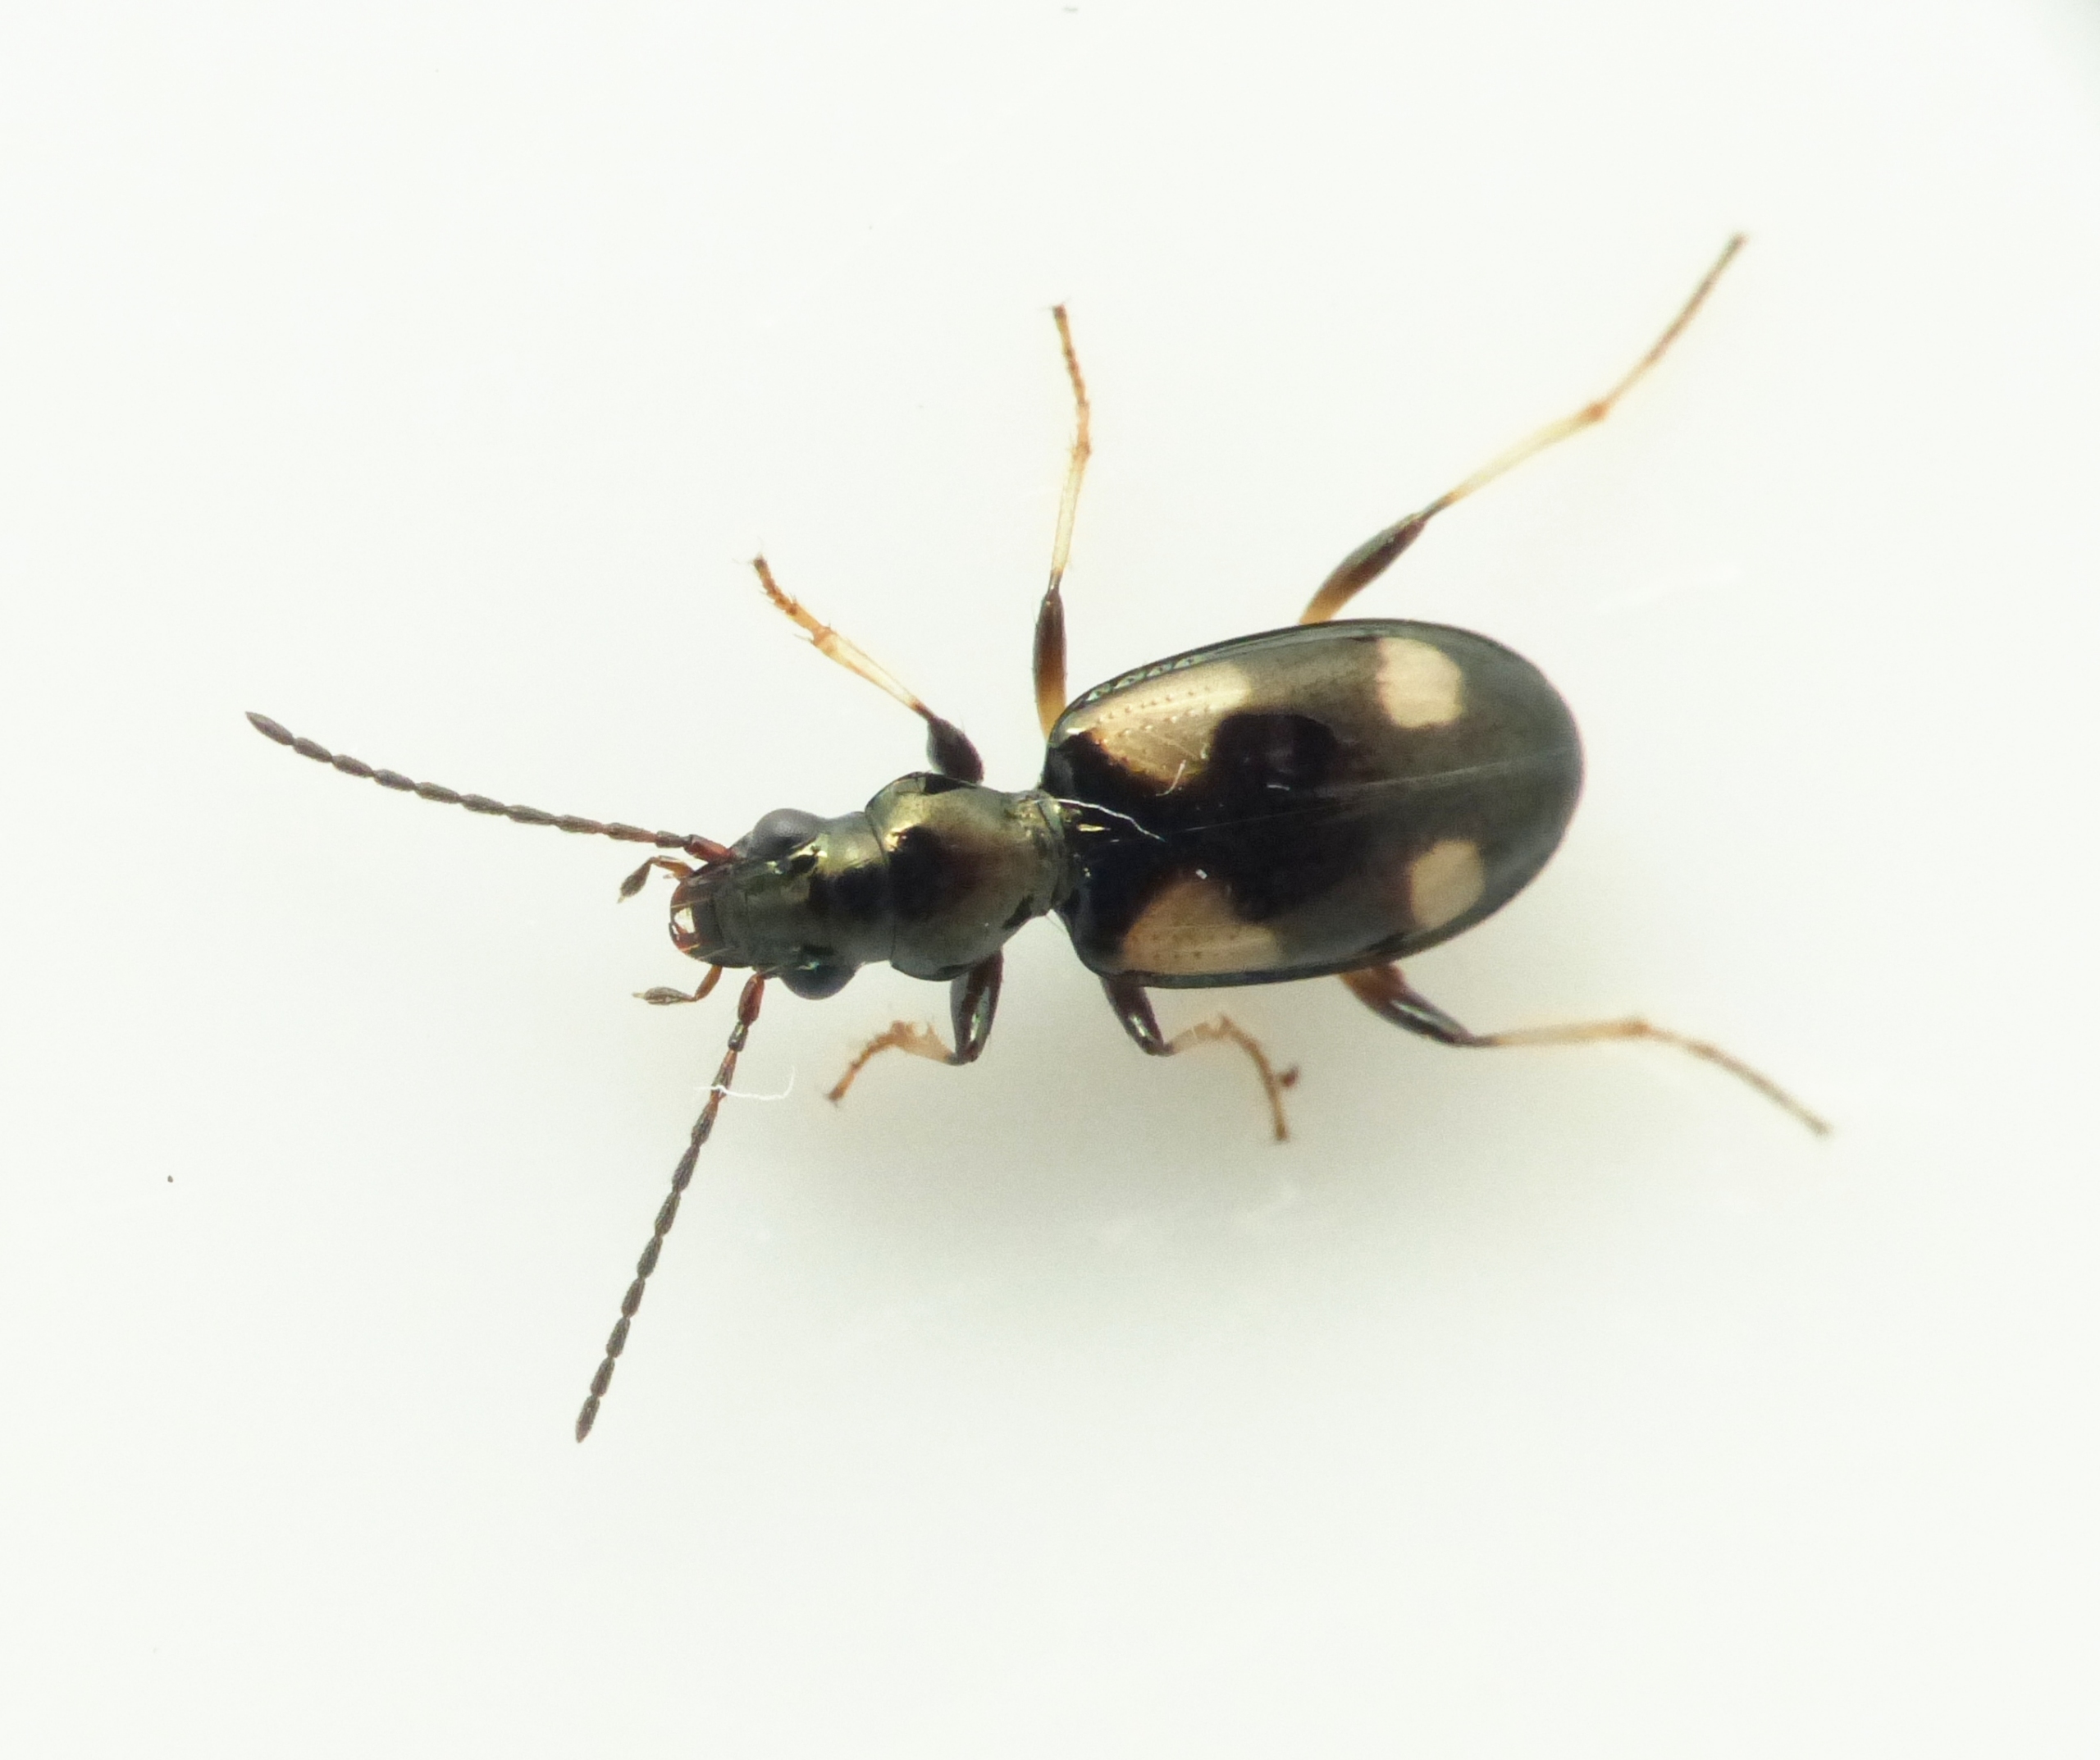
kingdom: Animalia
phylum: Arthropoda
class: Insecta
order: Coleoptera
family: Carabidae
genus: Bembidion
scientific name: Bembidion illigeri
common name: Firplettet glansløber
